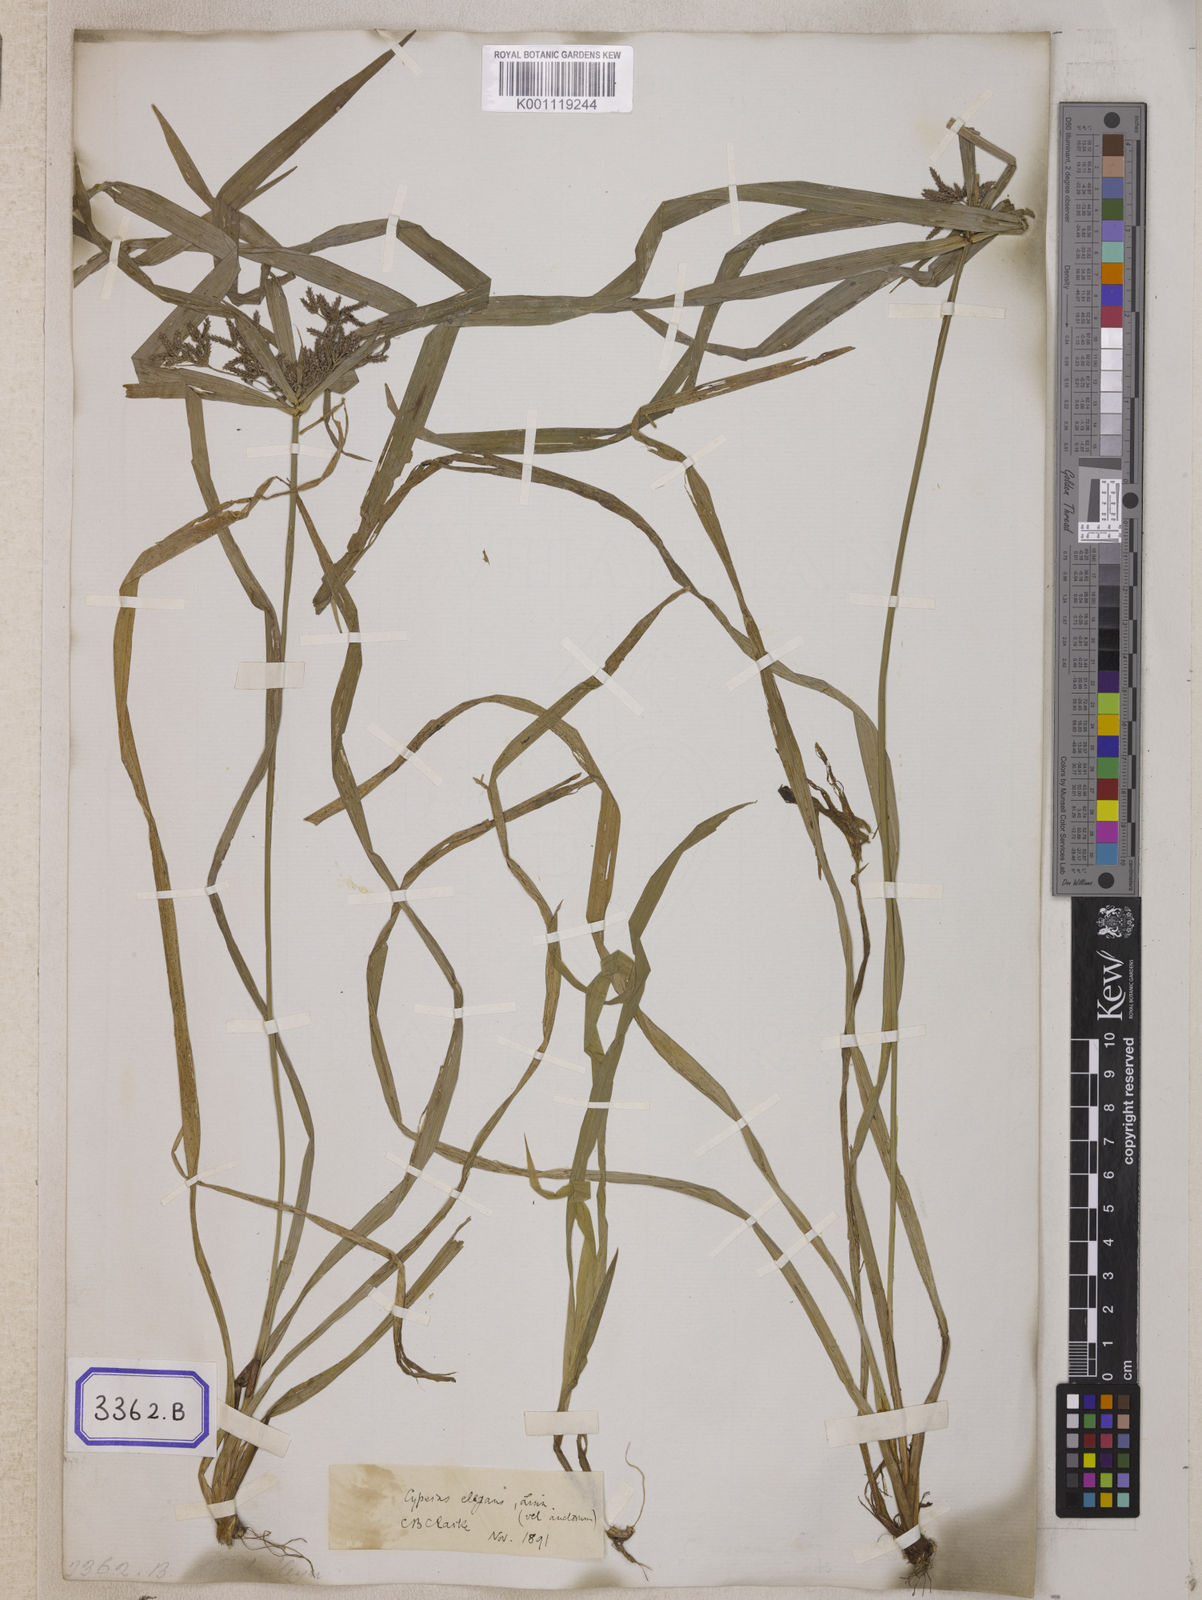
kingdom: Plantae
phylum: Tracheophyta
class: Liliopsida
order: Poales
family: Cyperaceae
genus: Cyperus
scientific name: Cyperus
